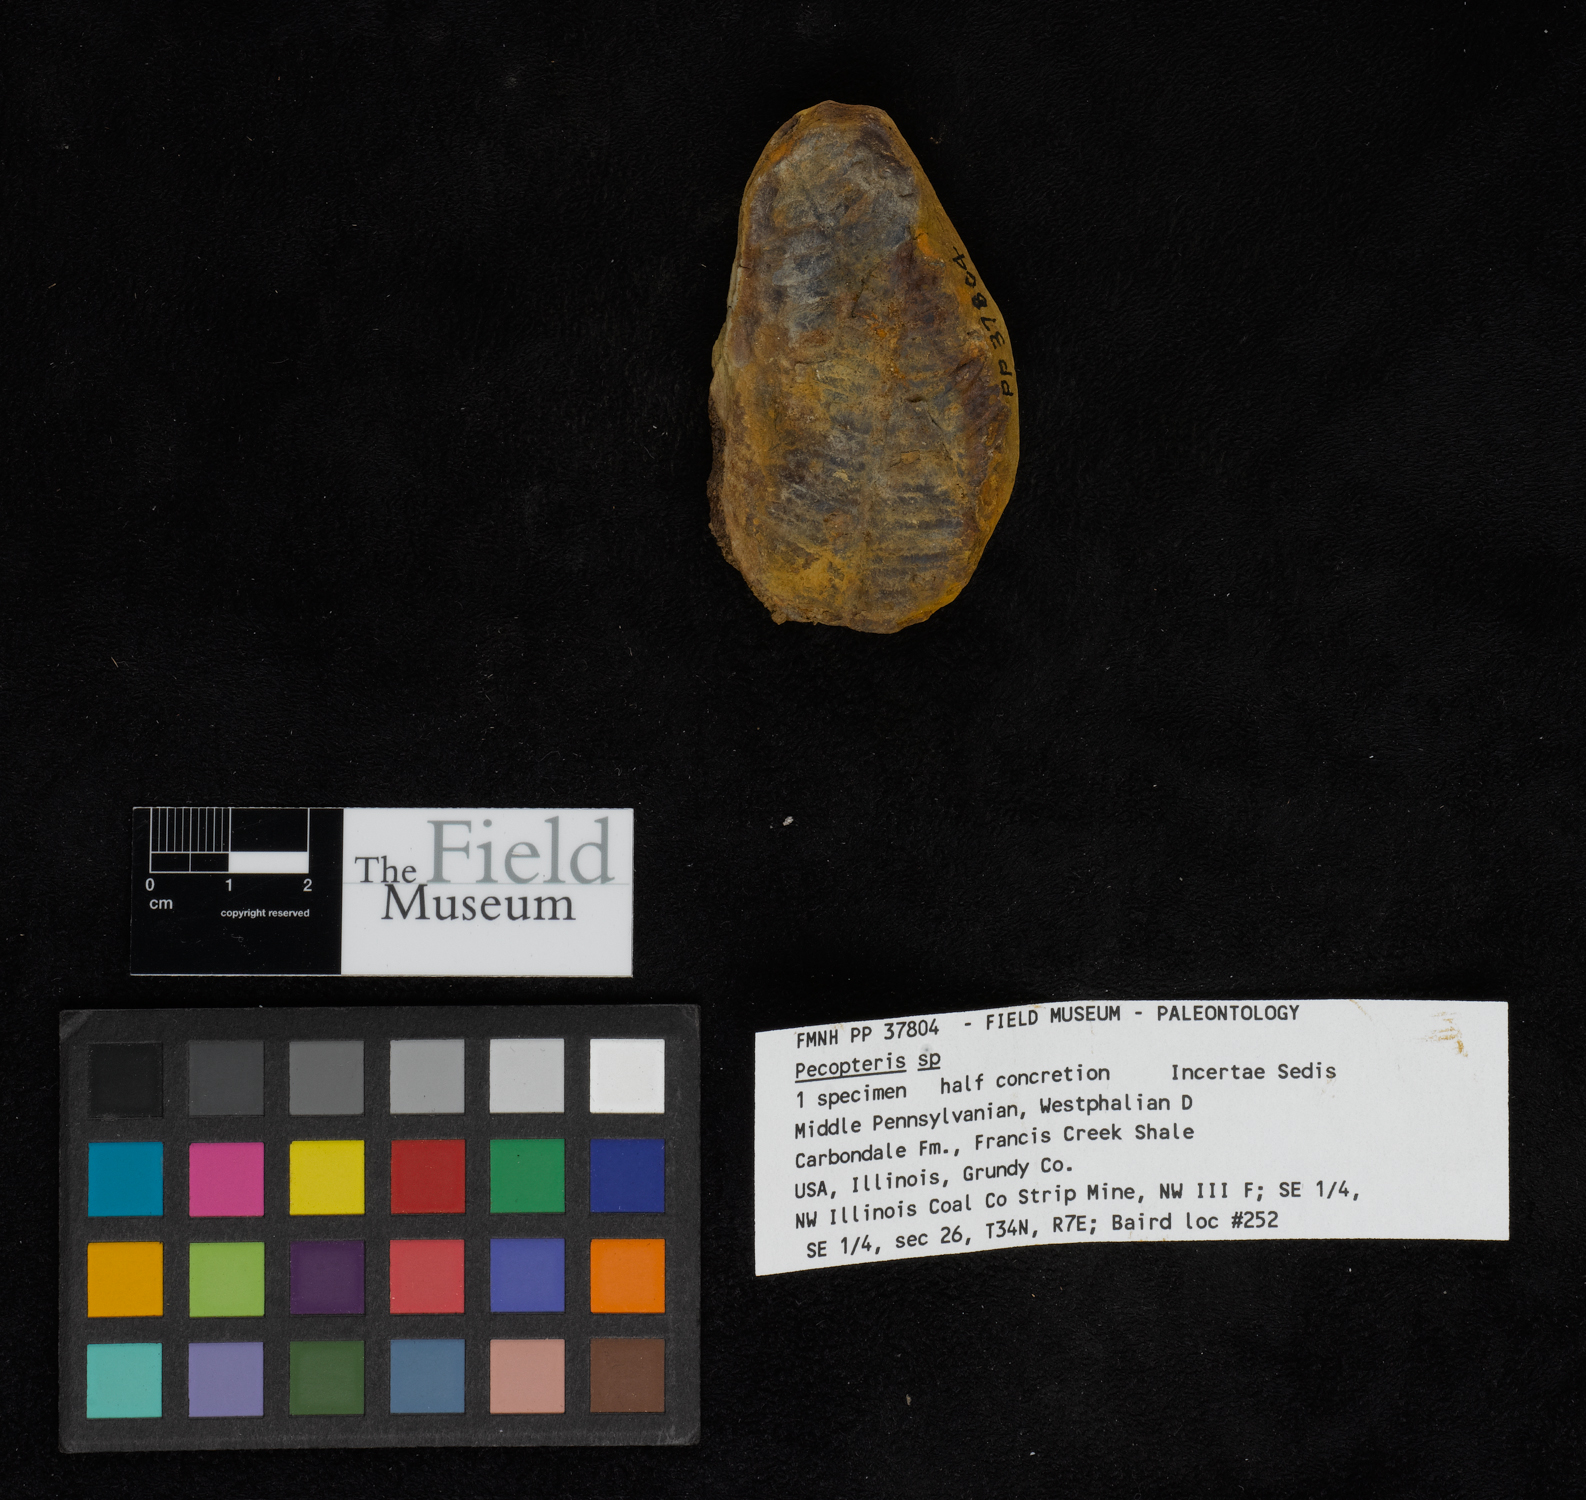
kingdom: Plantae
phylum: Tracheophyta
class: Polypodiopsida
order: Marattiales
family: Asterothecaceae
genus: Pecopteris
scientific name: Pecopteris
